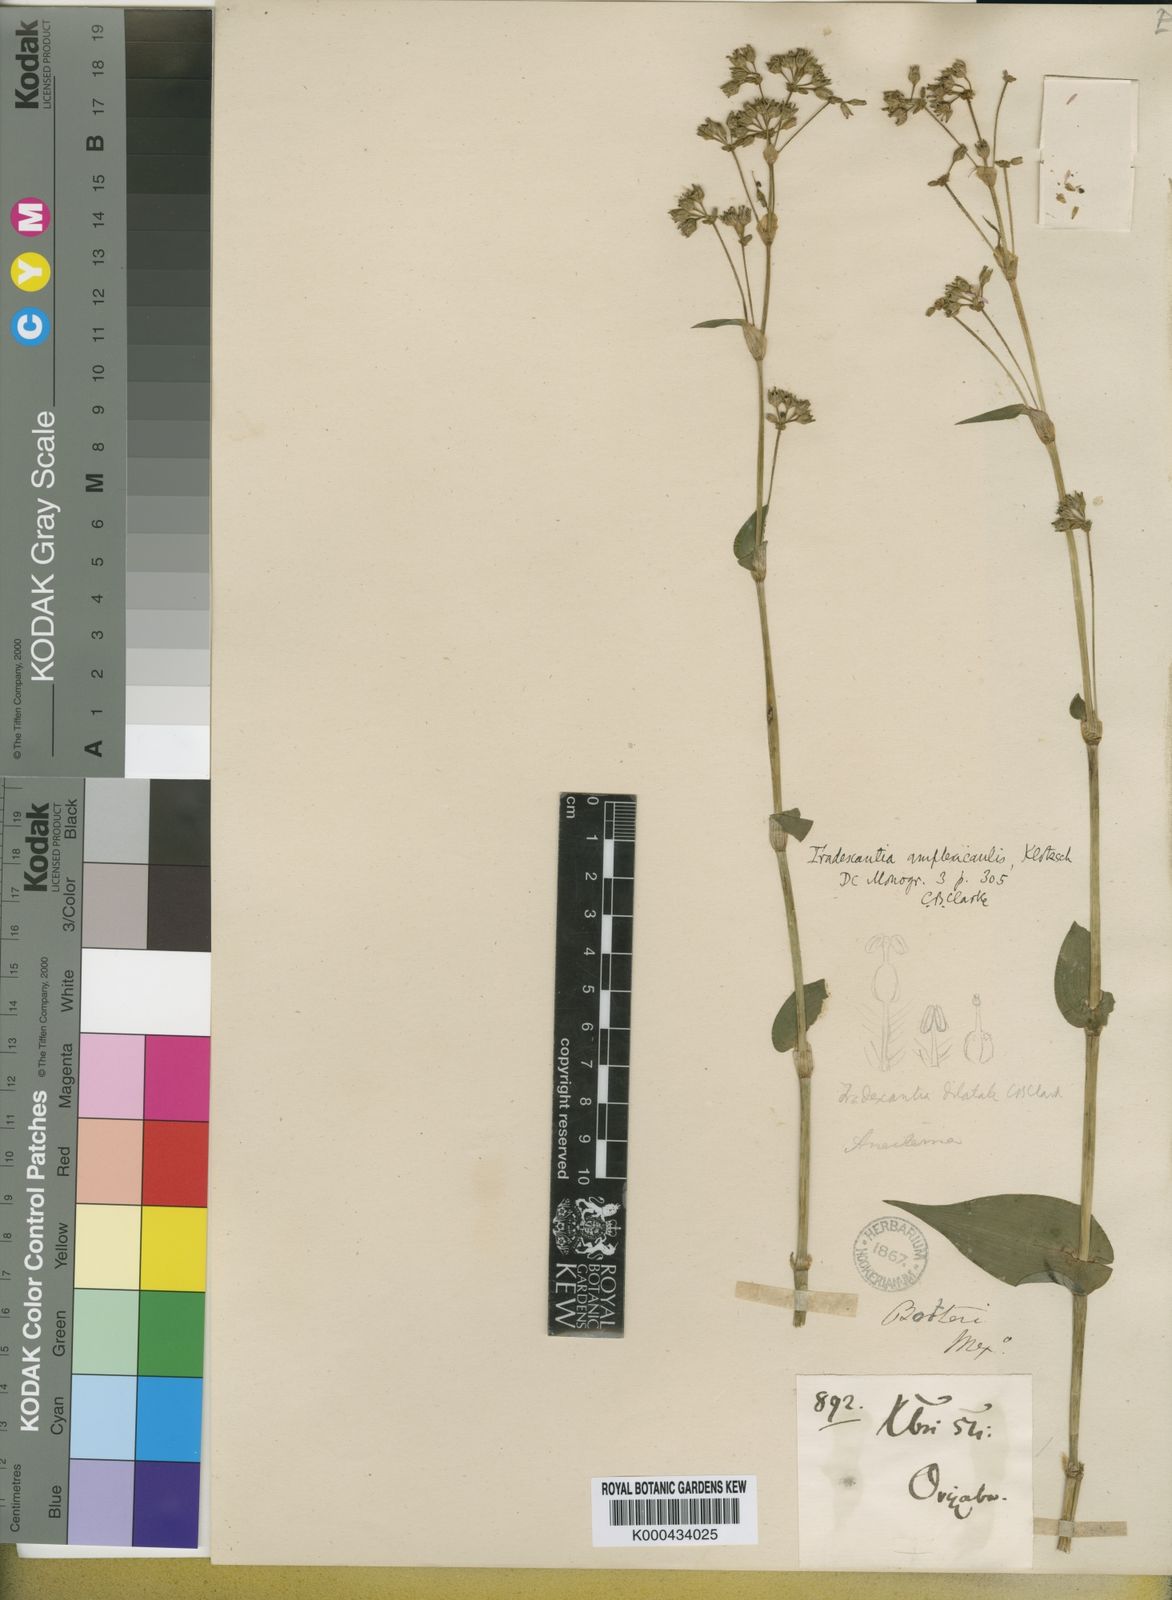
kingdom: Plantae
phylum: Tracheophyta
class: Liliopsida
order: Commelinales
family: Commelinaceae
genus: Callisia
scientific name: Callisia amplexicaulis
